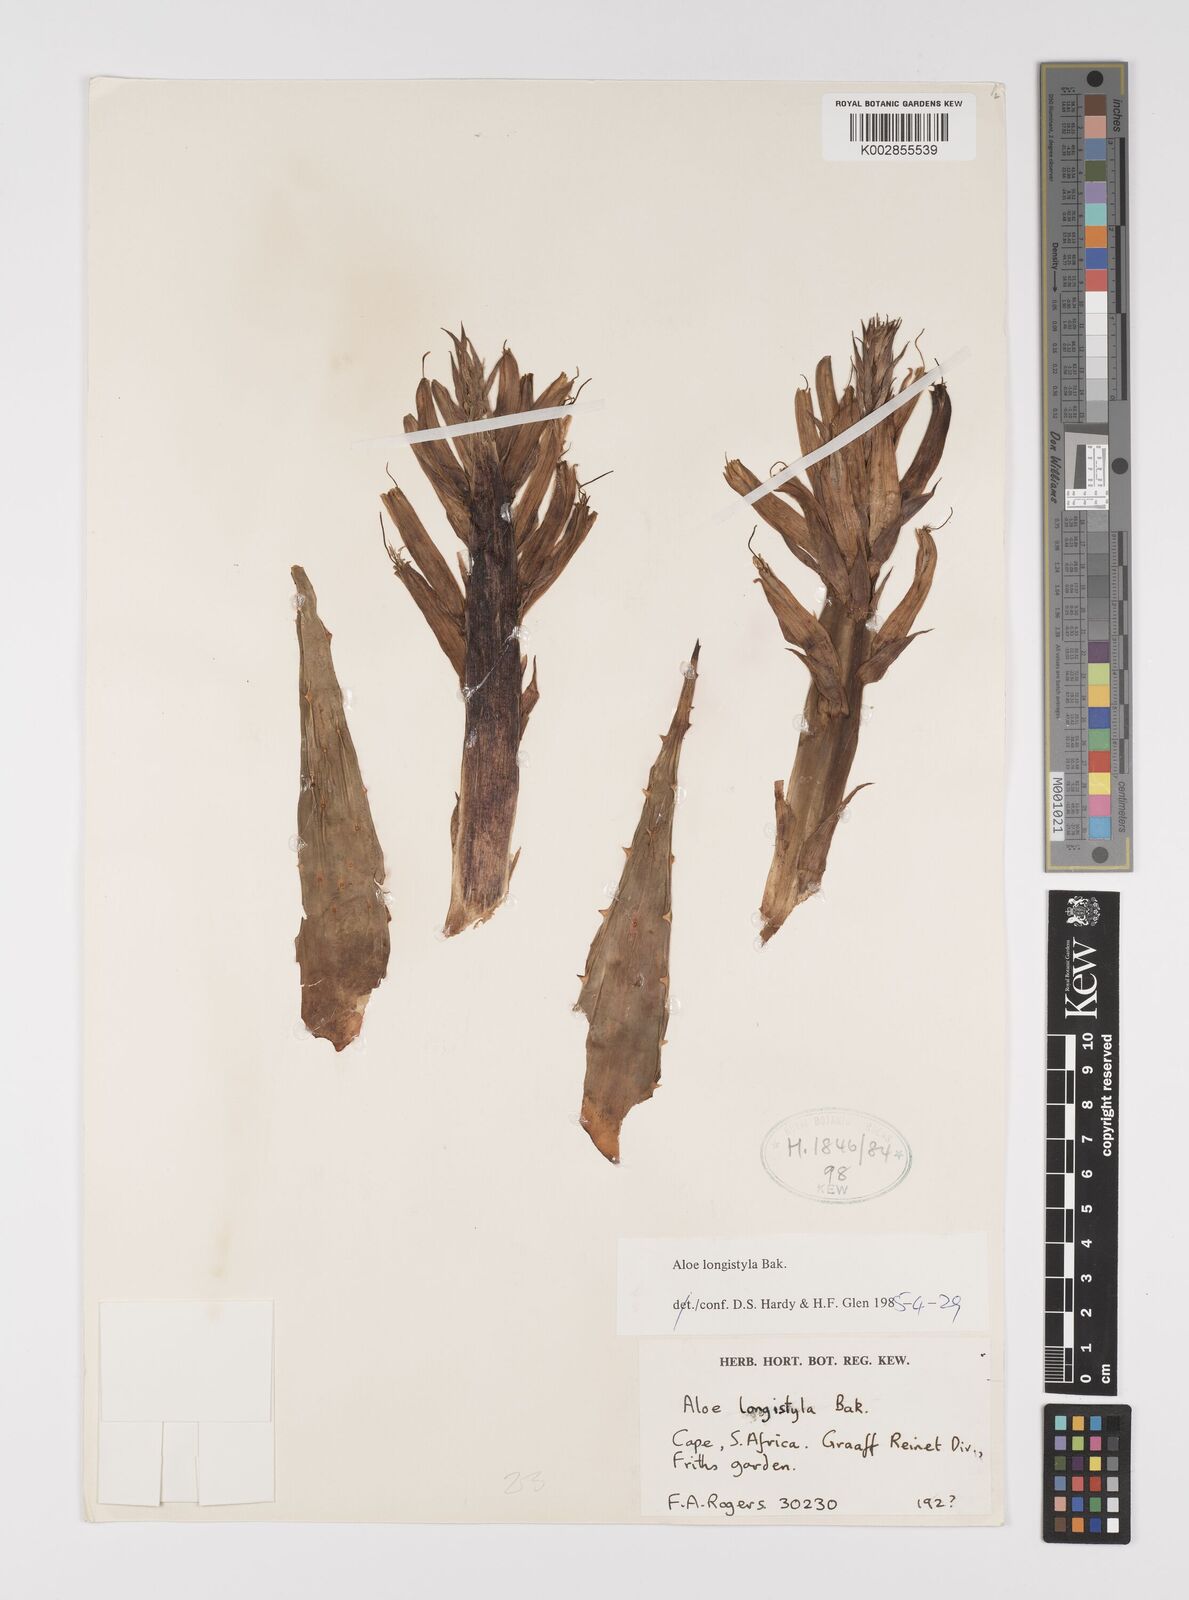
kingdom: Plantae
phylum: Tracheophyta
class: Liliopsida
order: Asparagales
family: Asphodelaceae
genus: Aloe
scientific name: Aloe longistyla
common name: Karoo aloe
